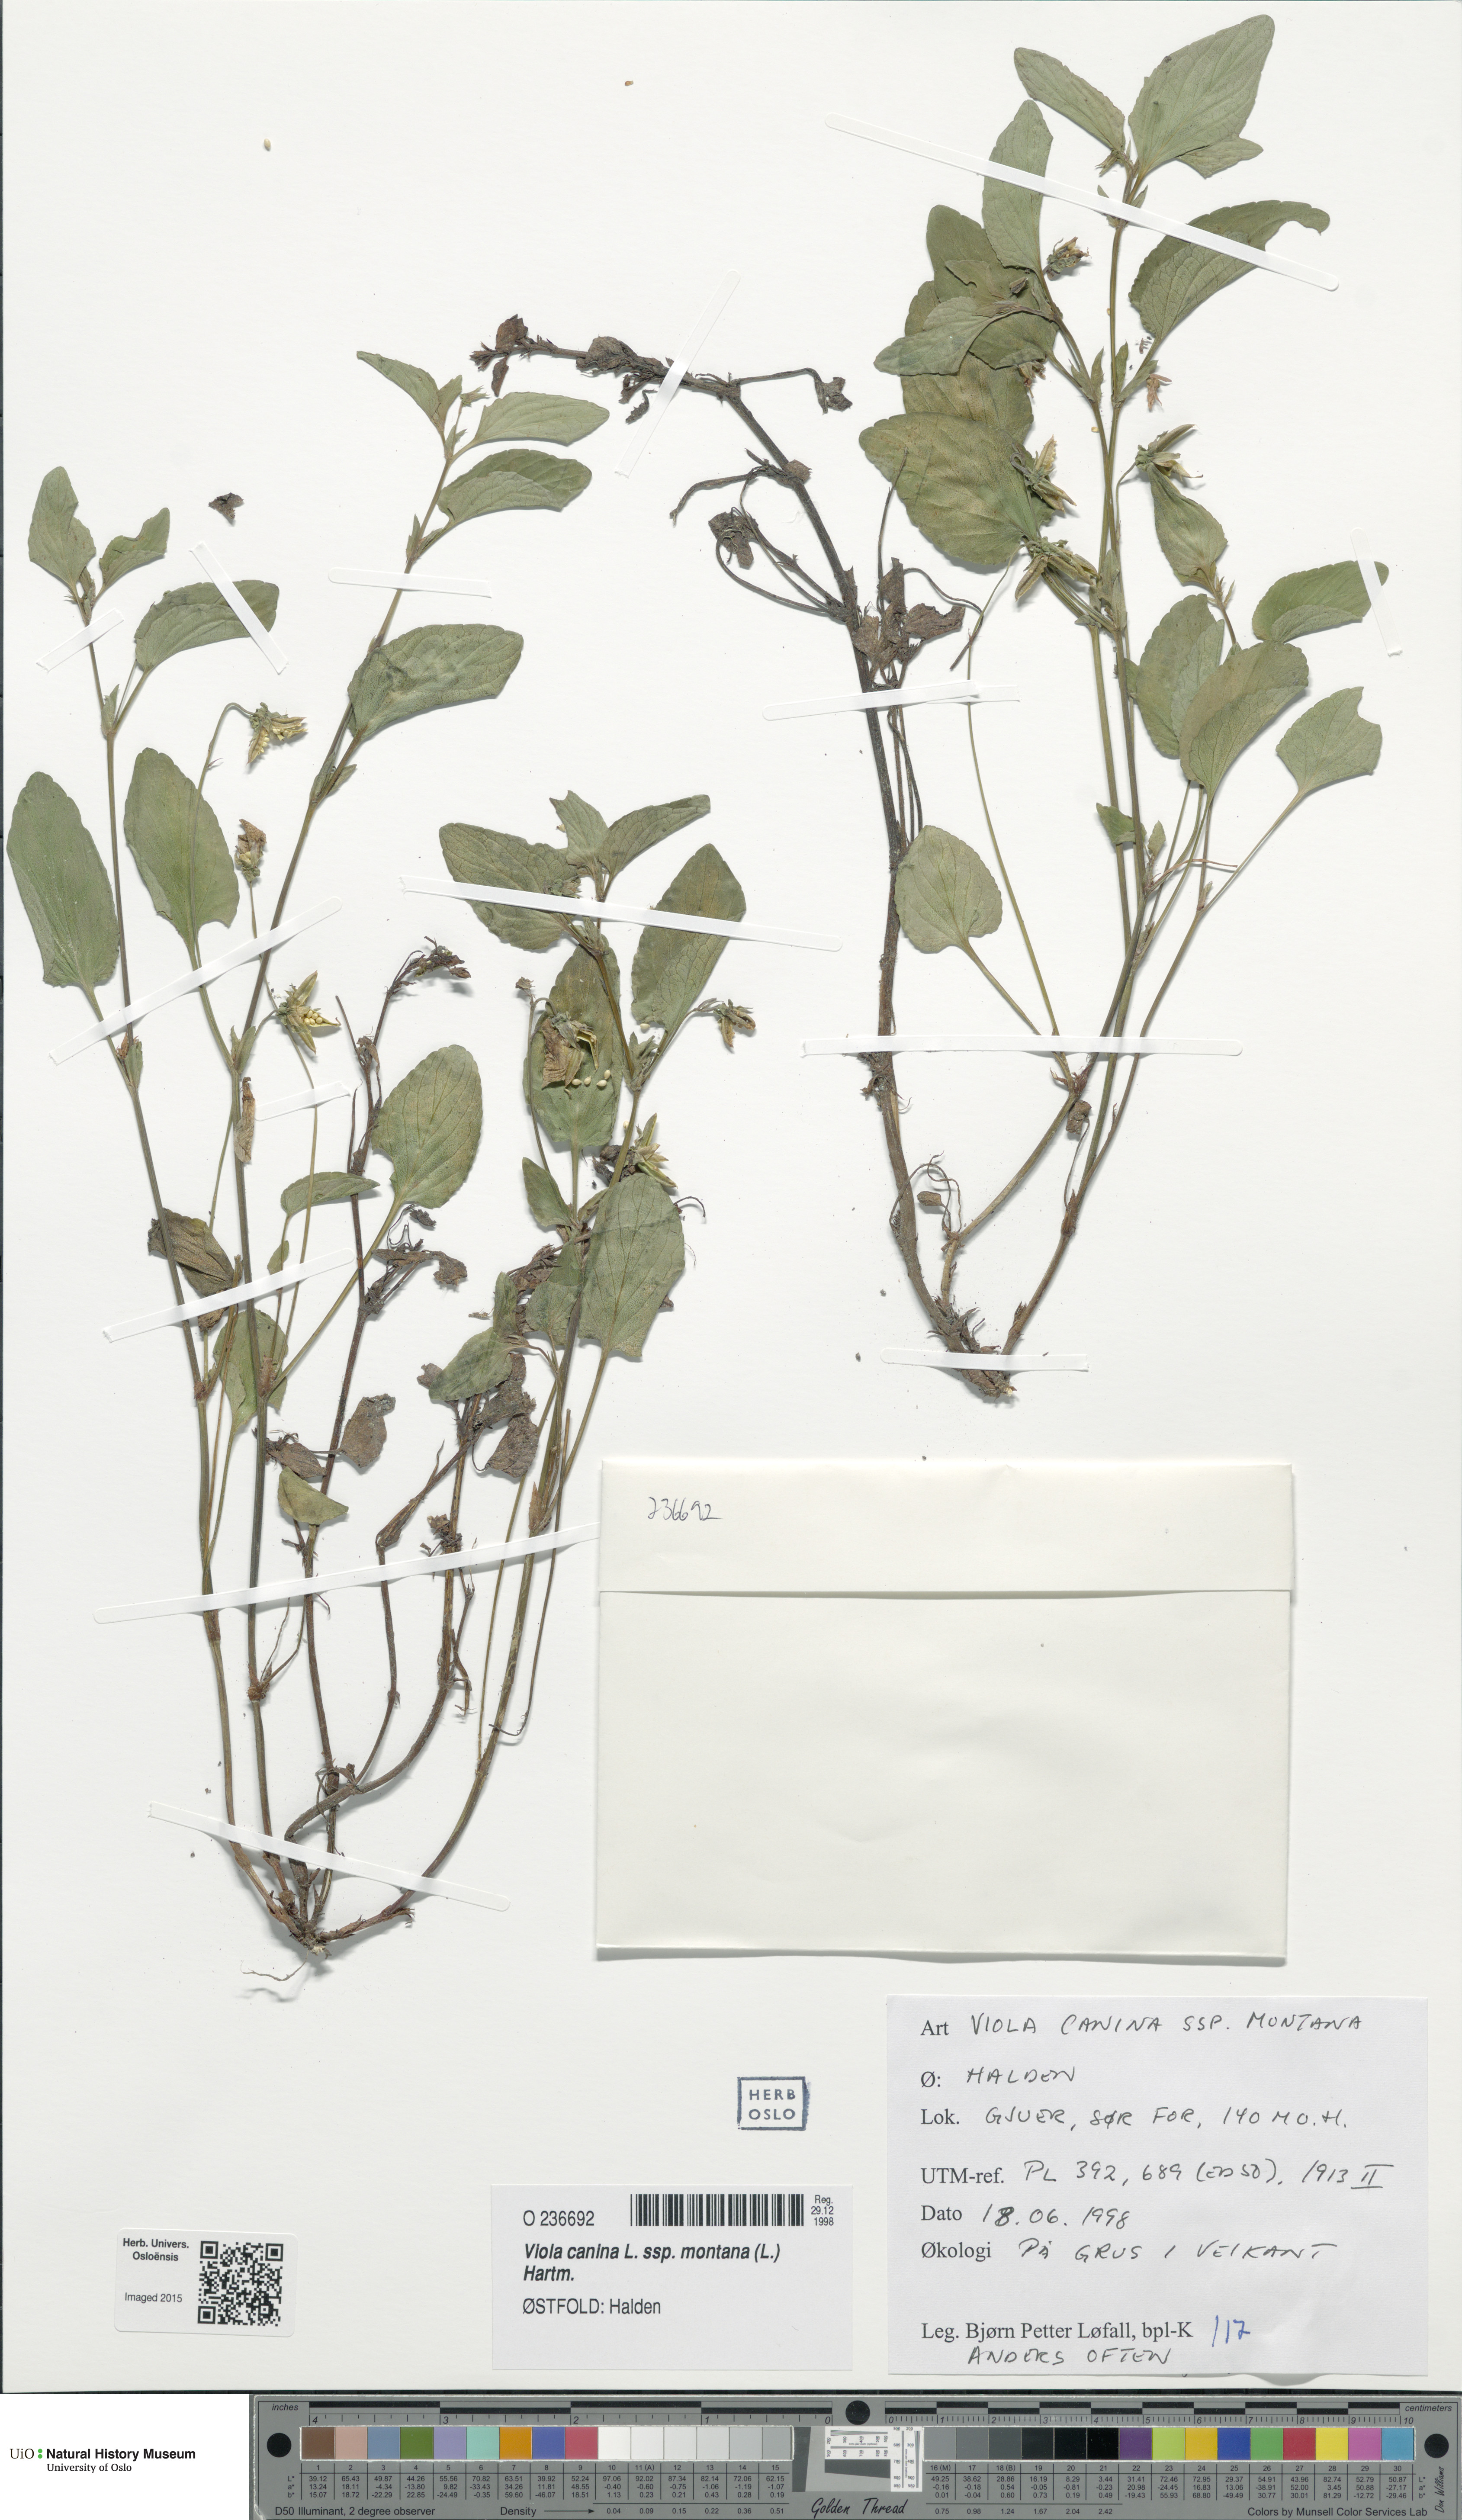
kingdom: Plantae
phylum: Tracheophyta
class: Magnoliopsida
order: Malpighiales
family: Violaceae
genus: Viola
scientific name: Viola ruppii
